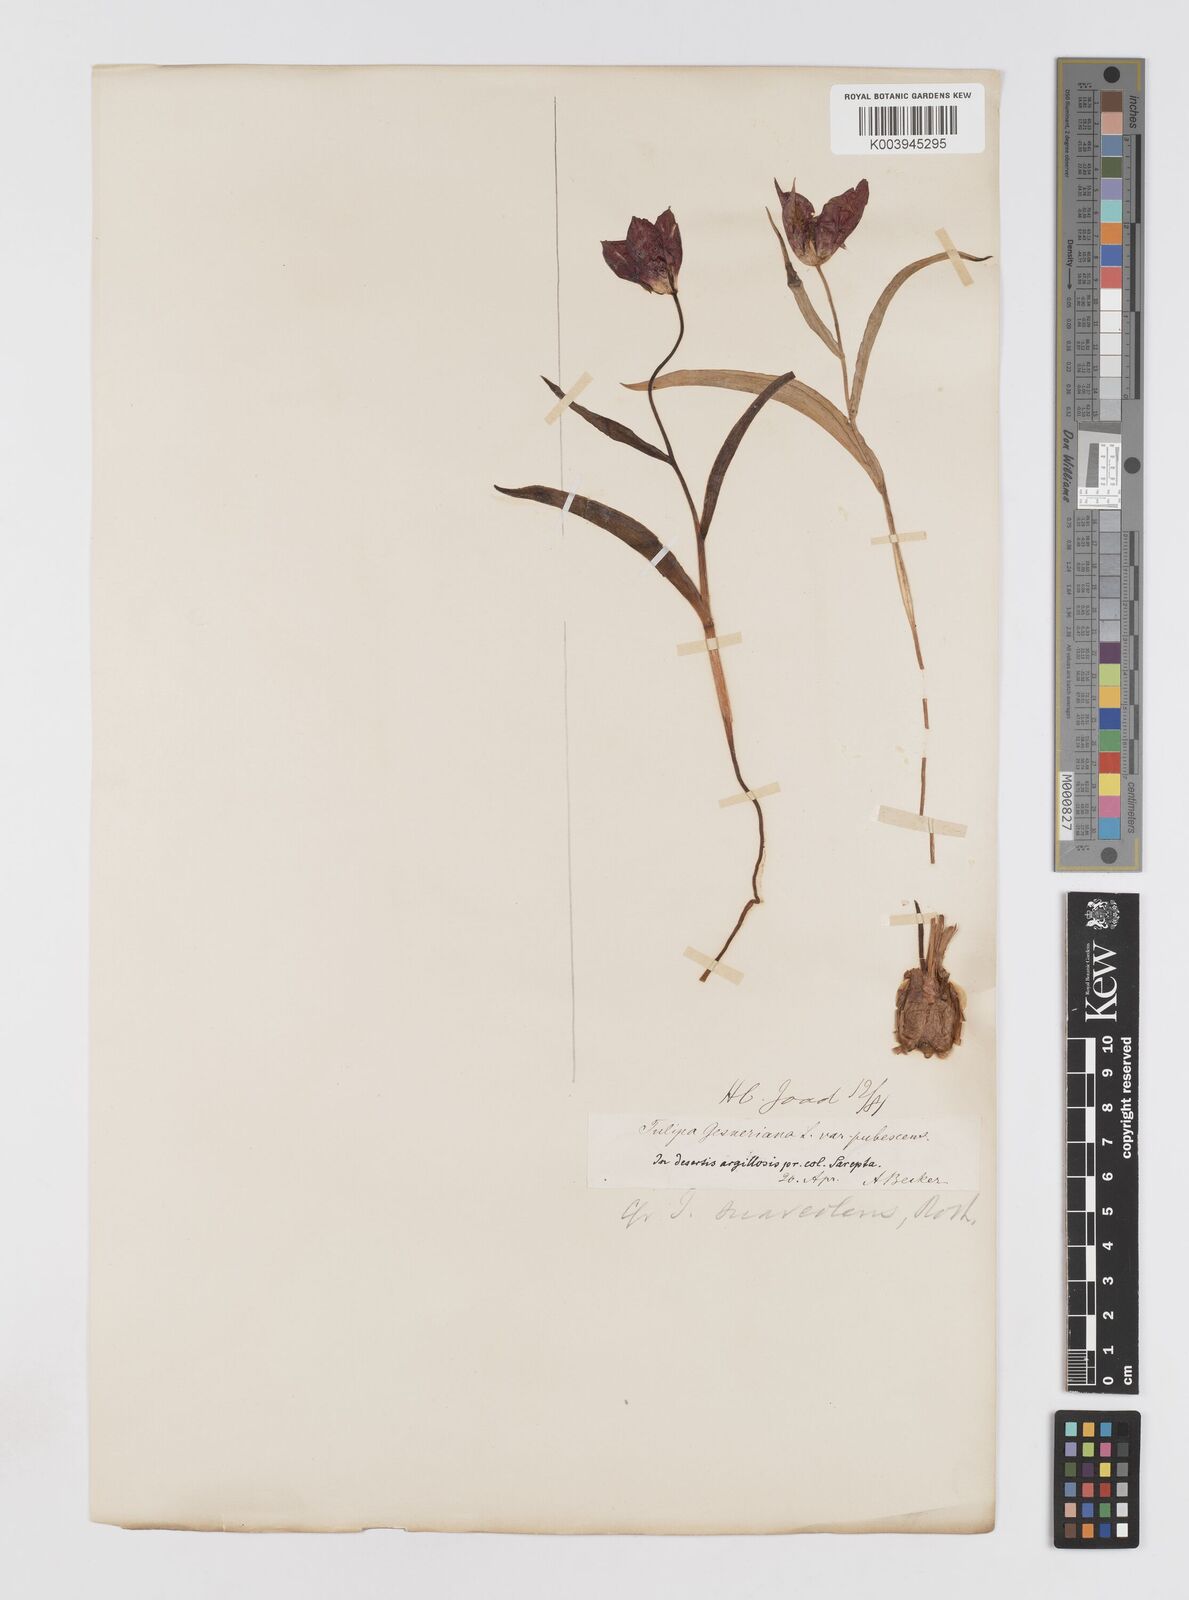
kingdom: Plantae
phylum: Tracheophyta
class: Liliopsida
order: Liliales
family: Liliaceae
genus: Tulipa
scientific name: Tulipa gesneriana
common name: Garden tulip
